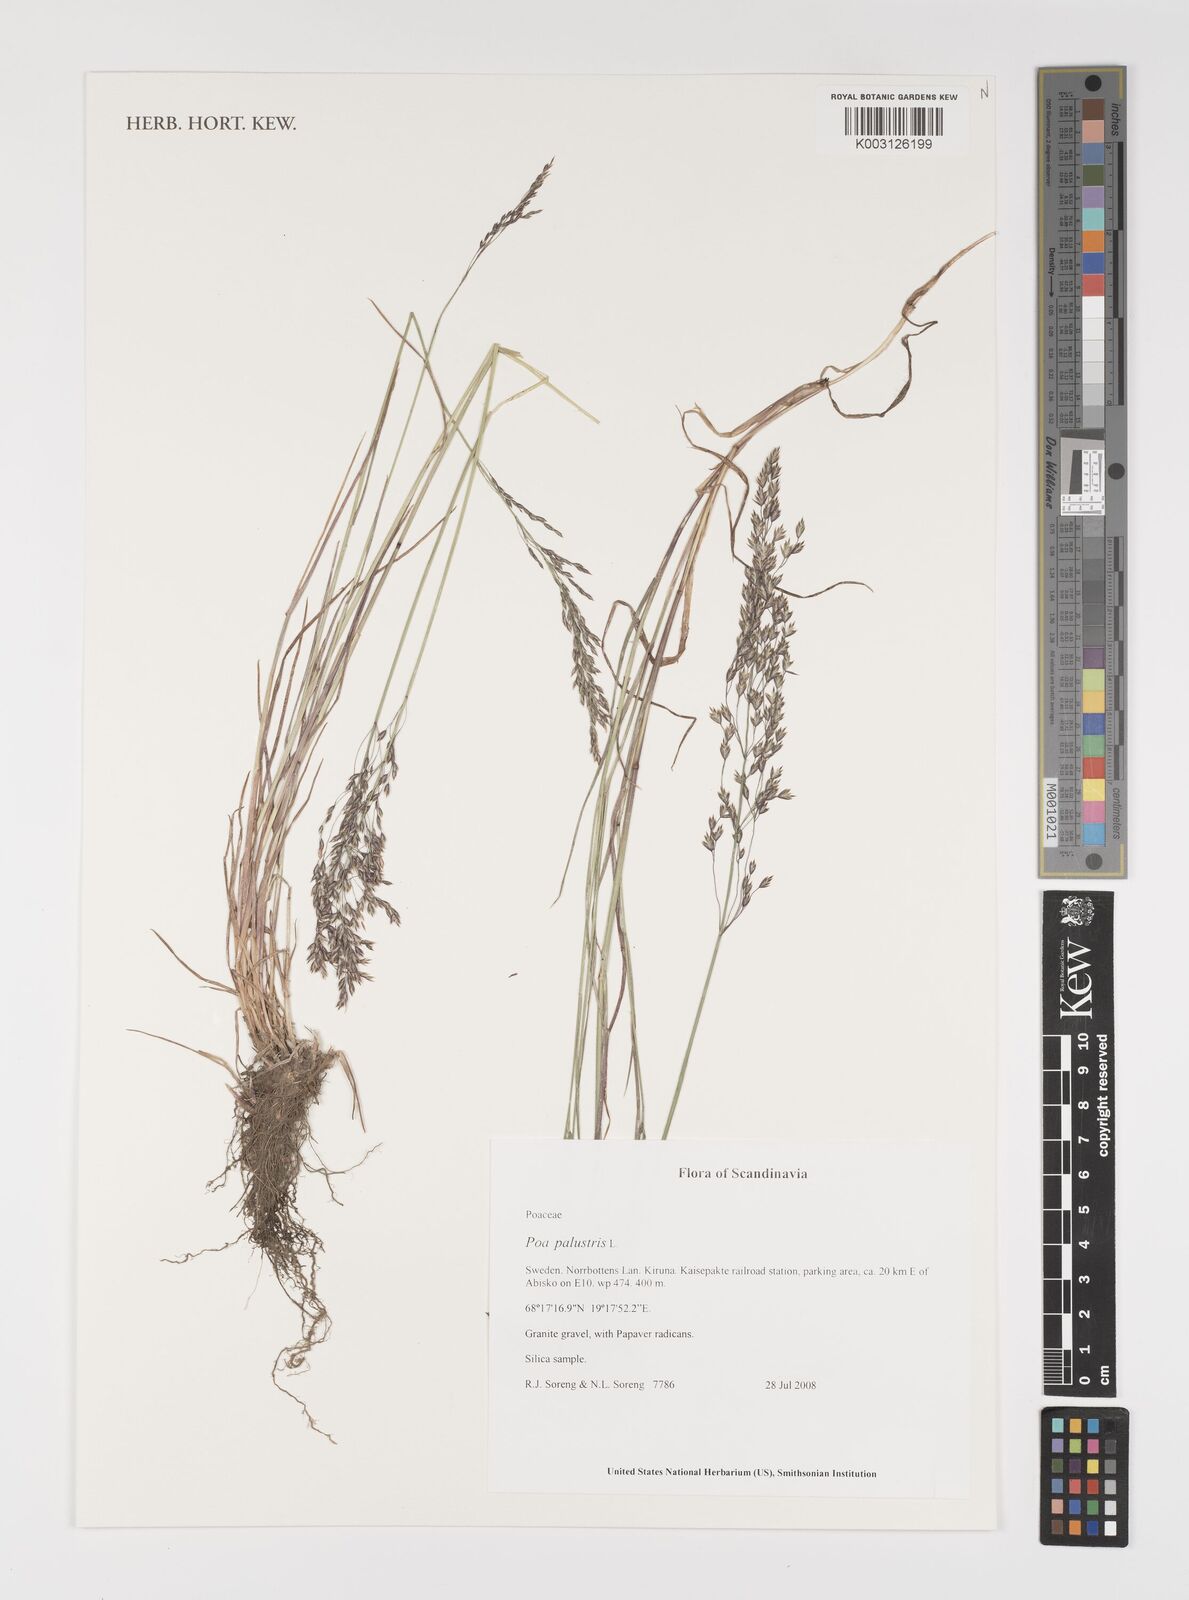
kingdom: Plantae
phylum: Tracheophyta
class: Liliopsida
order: Poales
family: Poaceae
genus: Poa
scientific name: Poa palustris
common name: Swamp meadow-grass
